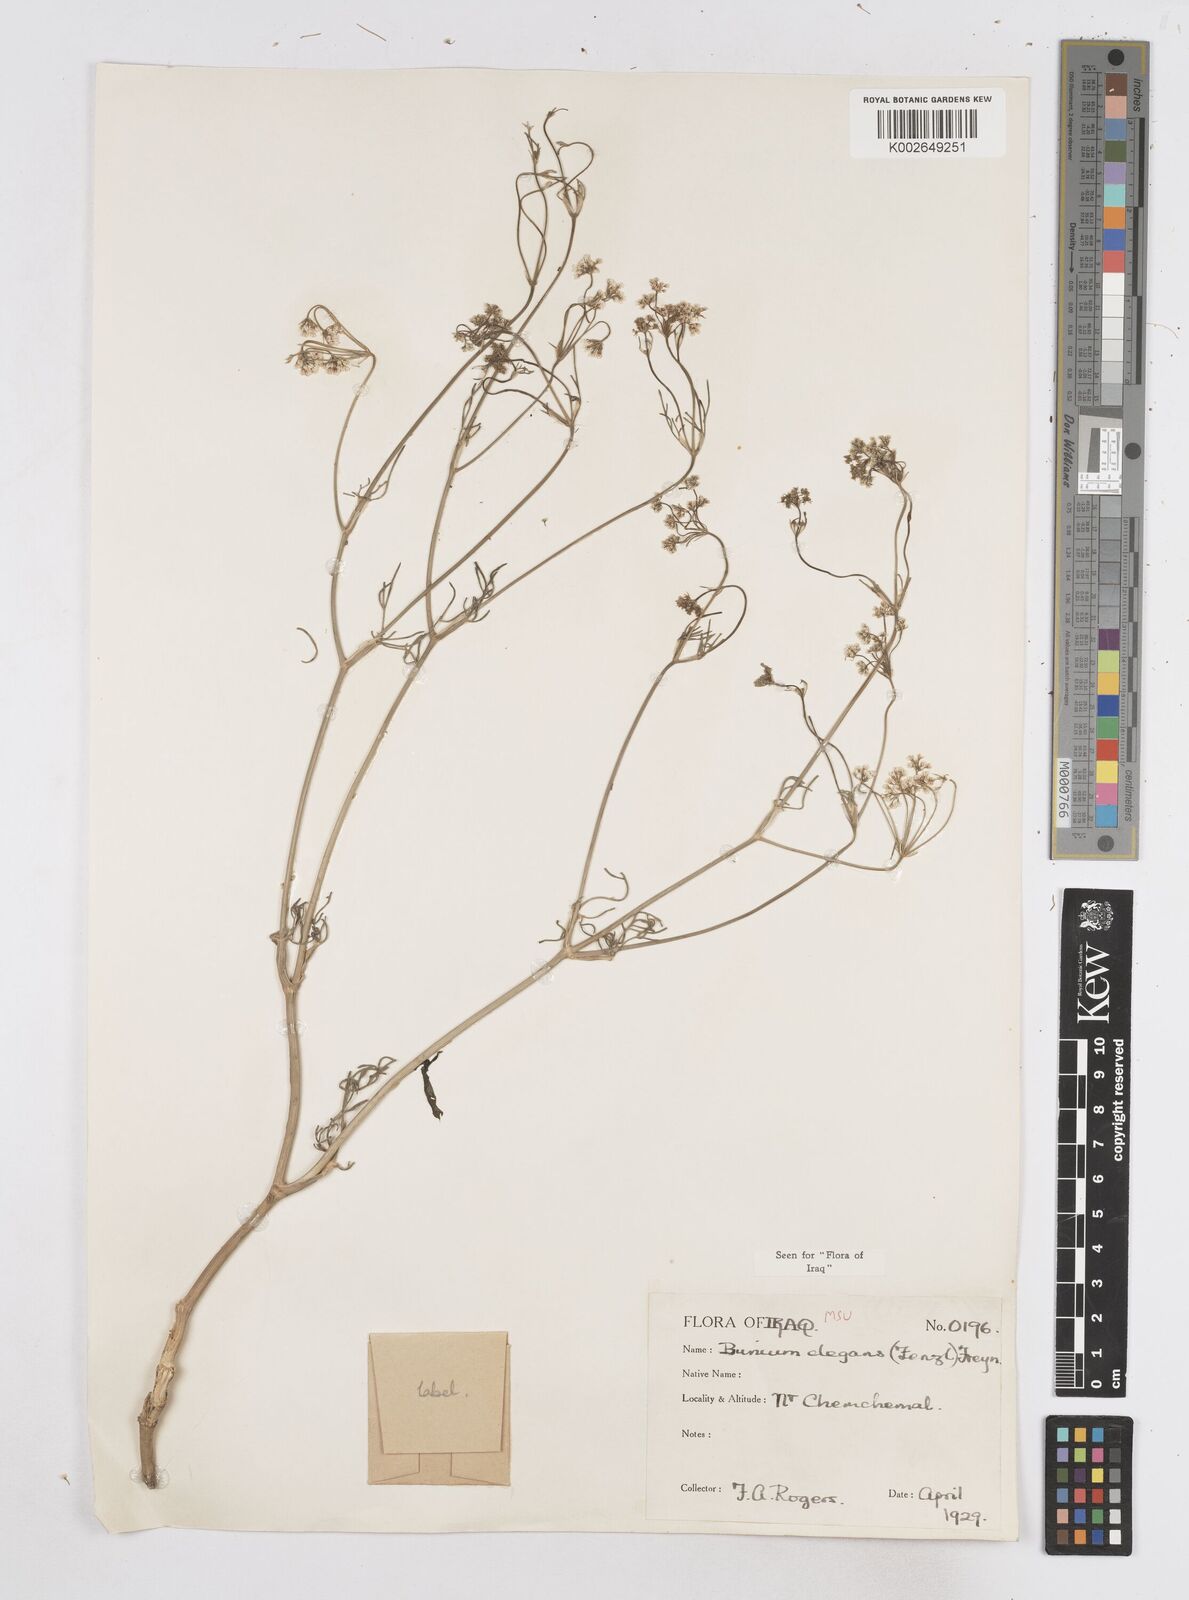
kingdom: Plantae
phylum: Tracheophyta
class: Magnoliopsida
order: Apiales
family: Apiaceae
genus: Bunium
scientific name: Bunium paucifolium
